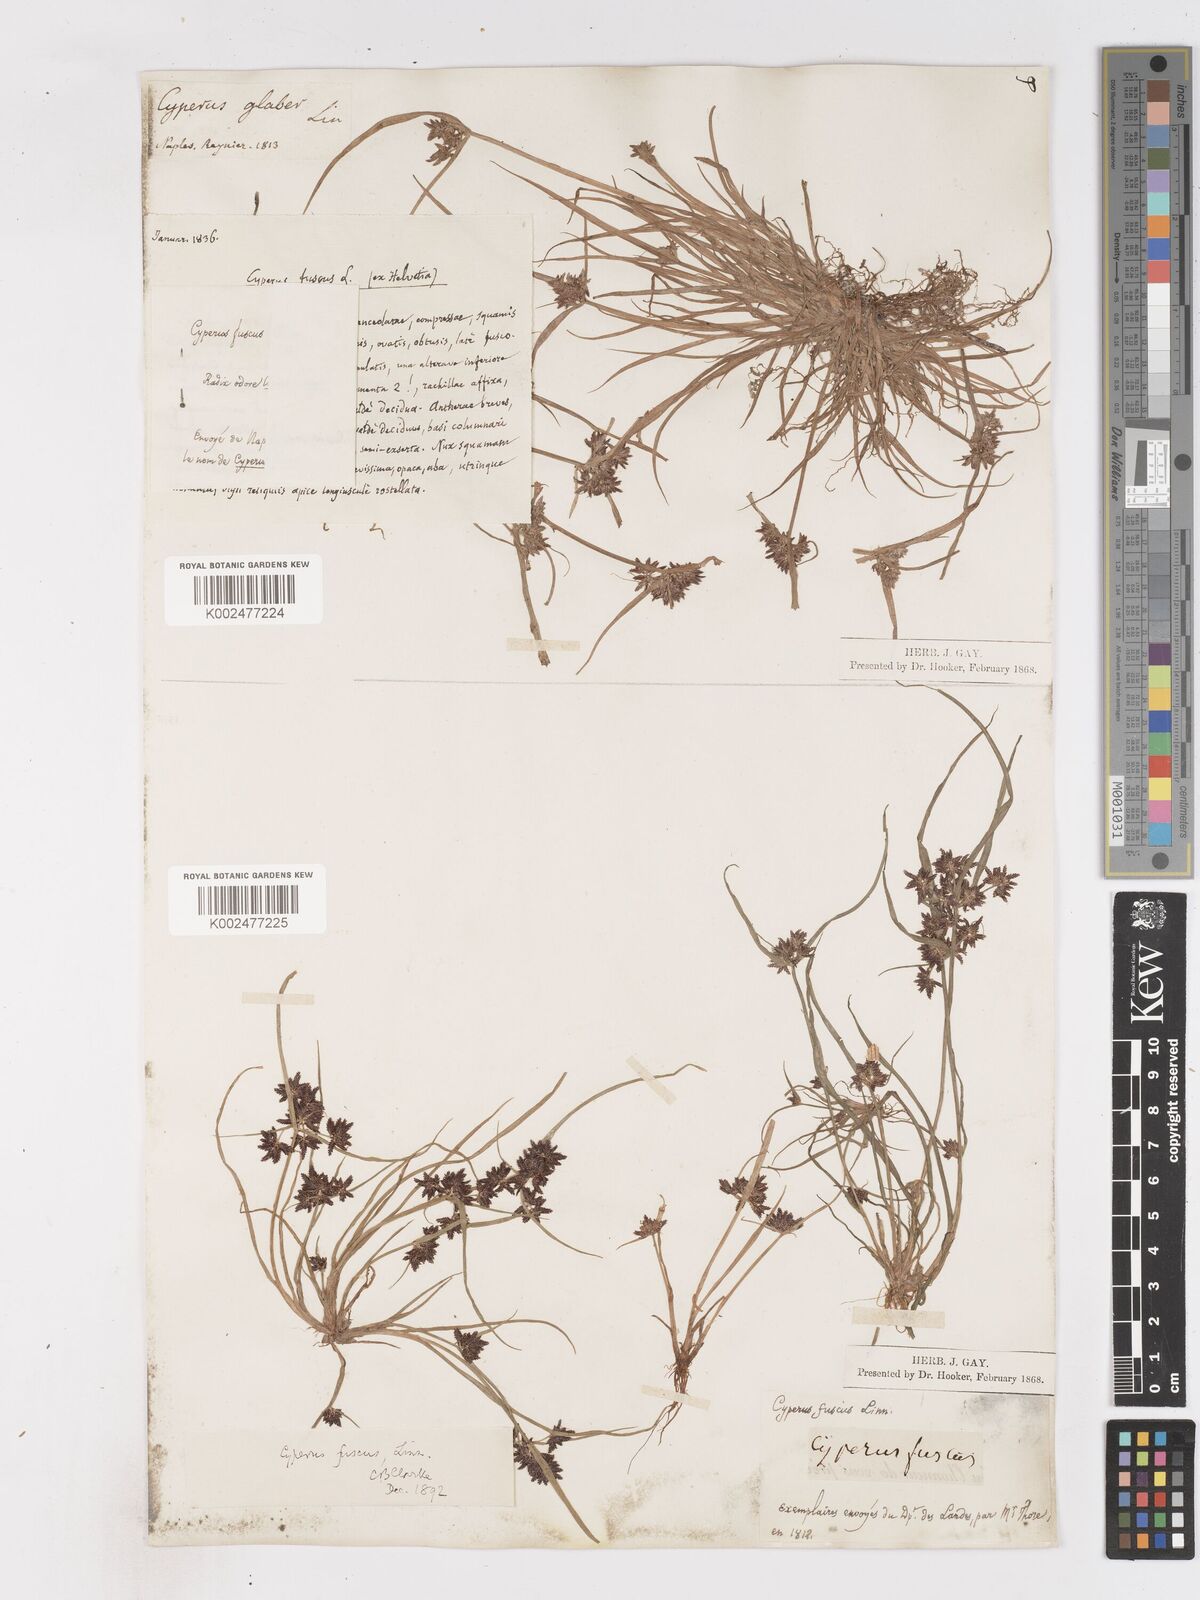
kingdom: Plantae
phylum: Tracheophyta
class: Liliopsida
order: Poales
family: Cyperaceae
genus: Cyperus
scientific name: Cyperus fuscus
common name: Brown galingale
